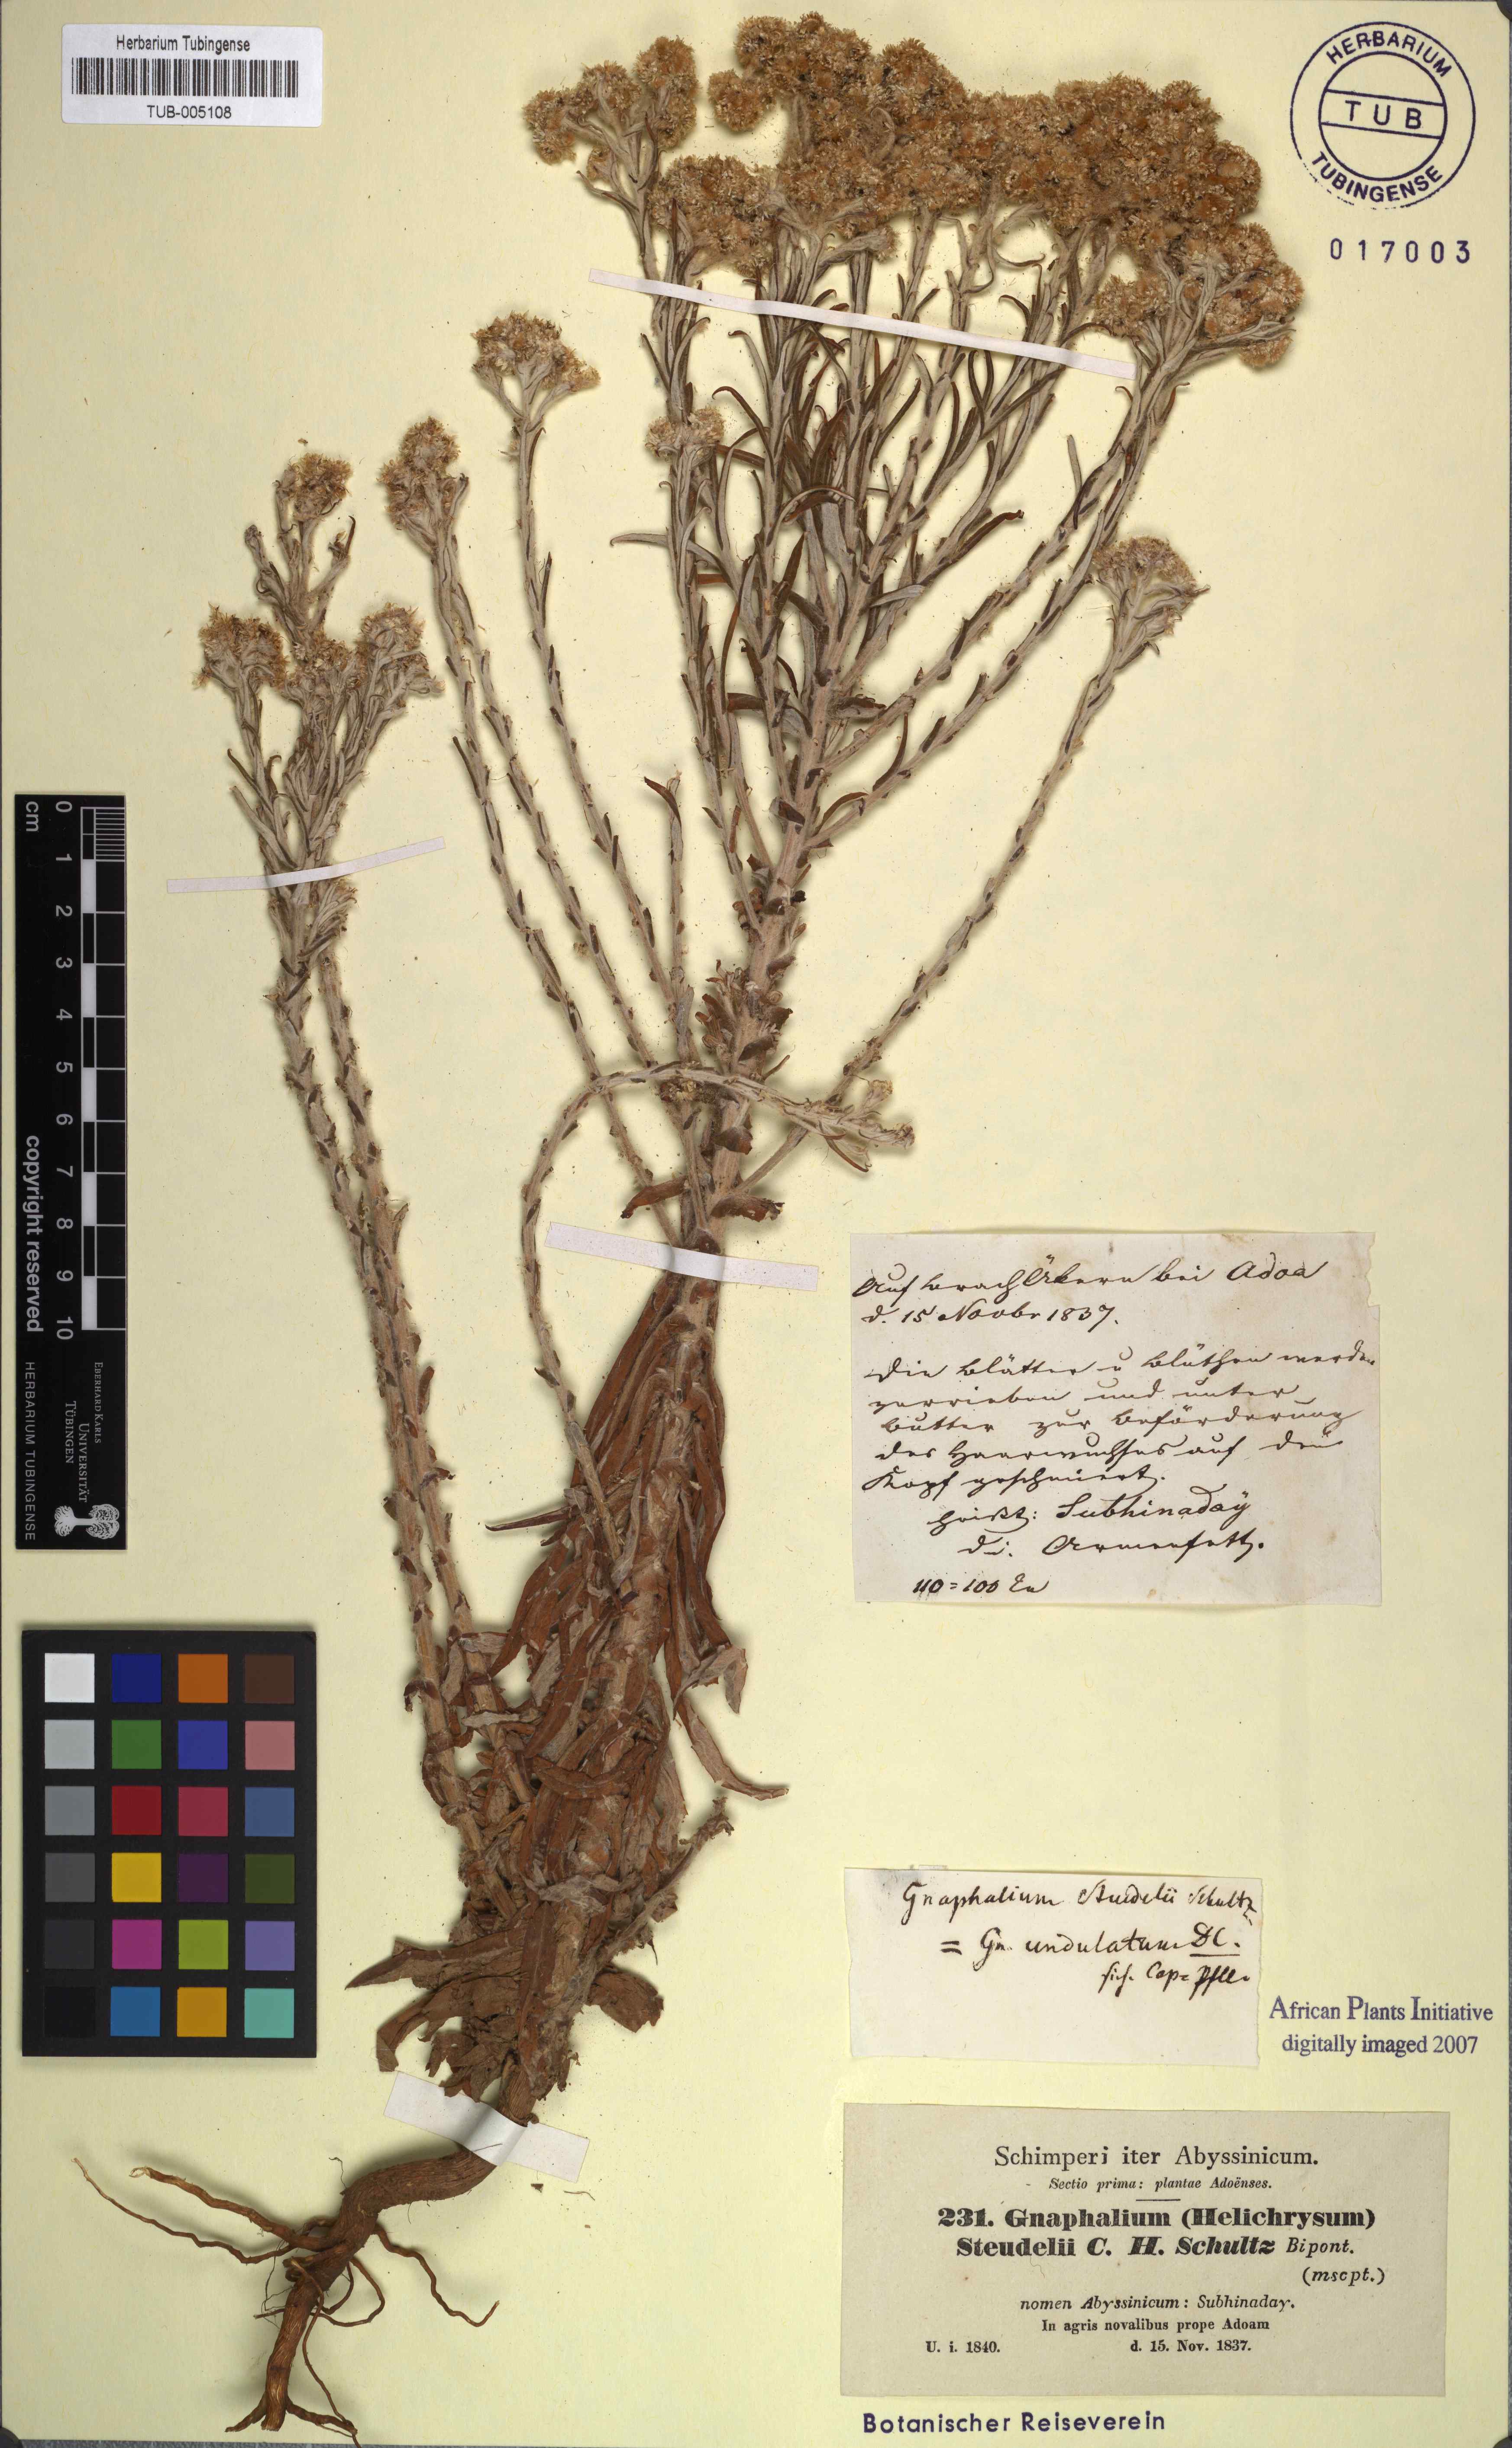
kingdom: Plantae
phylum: Tracheophyta
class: Magnoliopsida
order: Asterales
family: Asteraceae
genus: Pseudognaphalium
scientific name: Pseudognaphalium oligandrum
